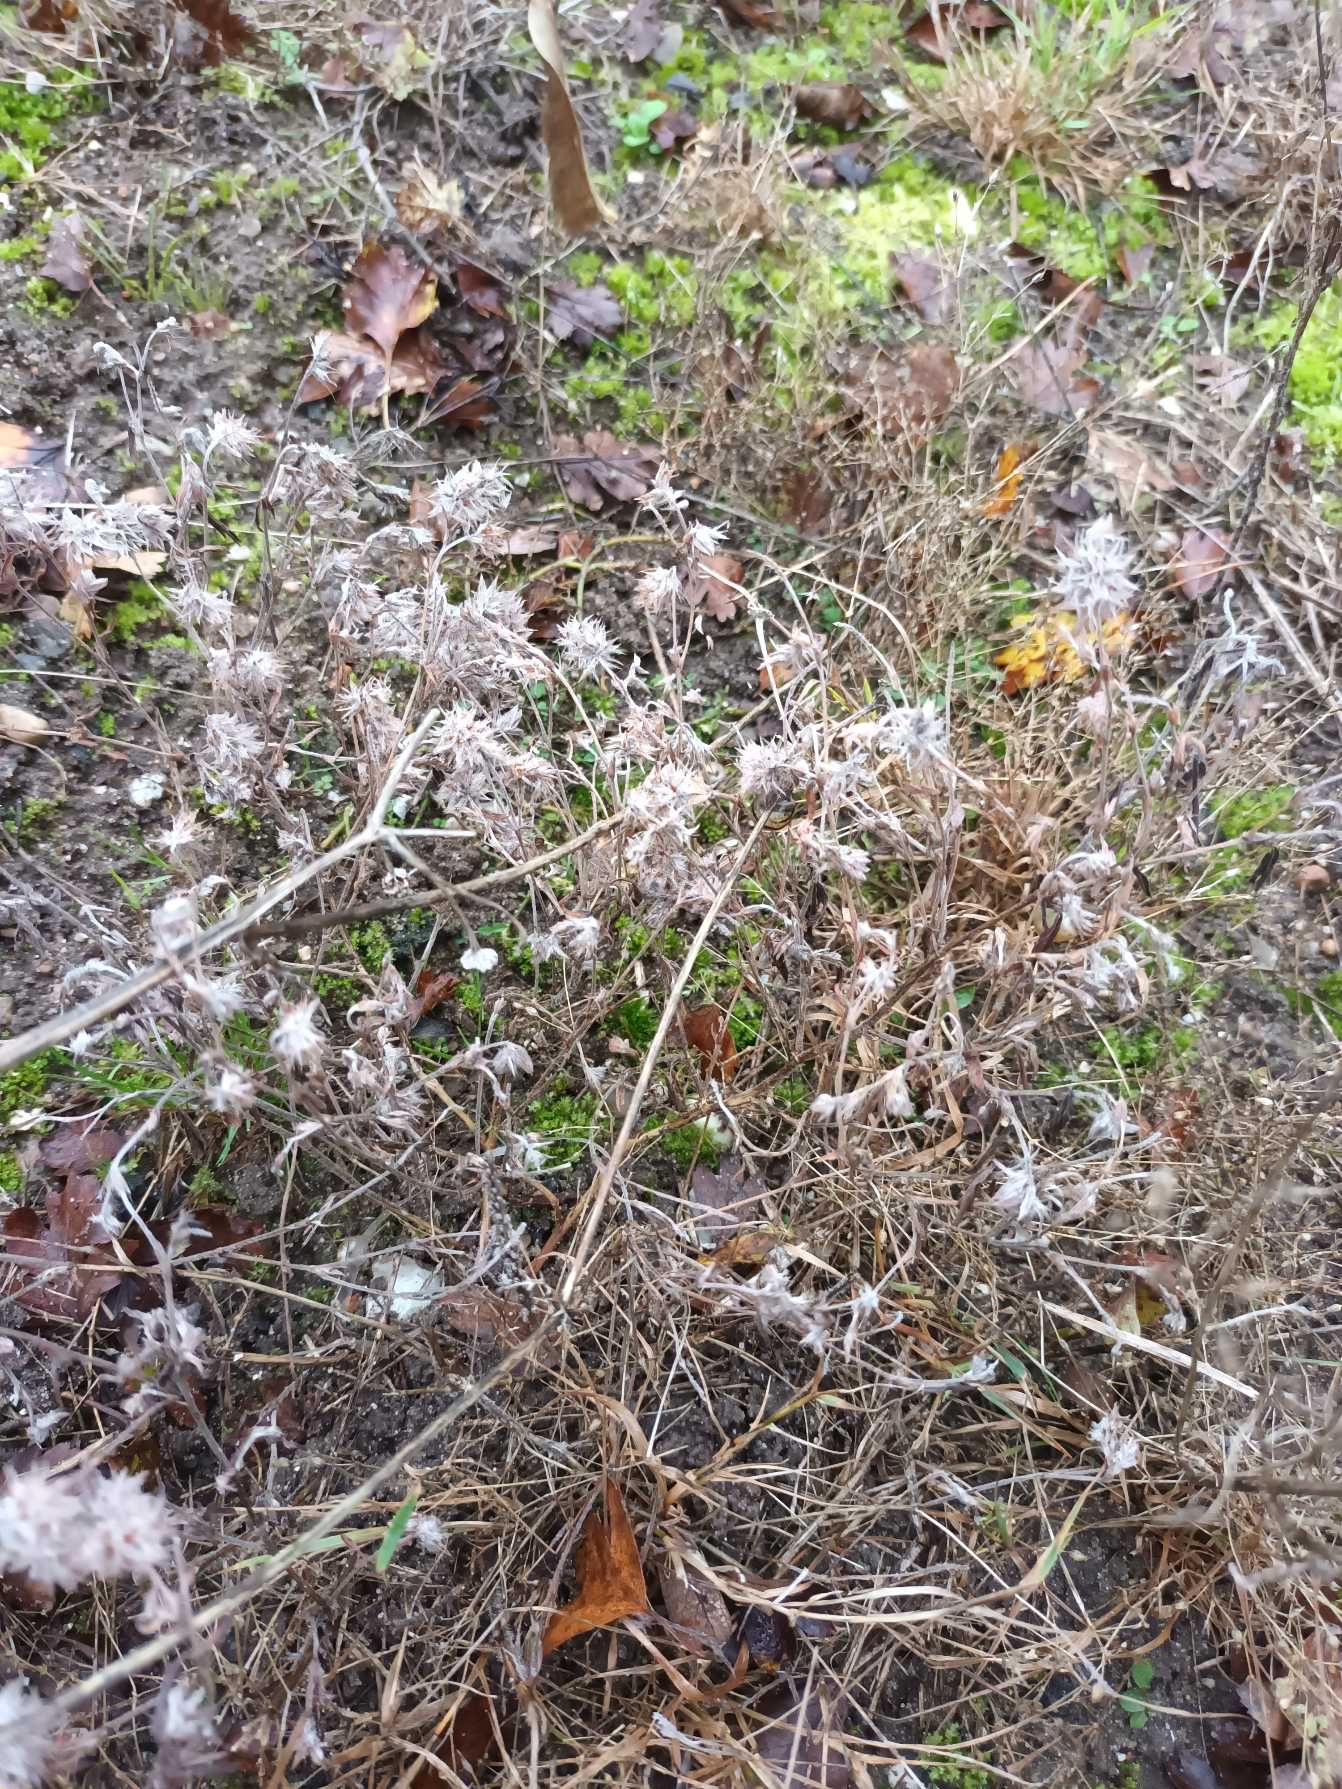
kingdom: Plantae
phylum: Tracheophyta
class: Magnoliopsida
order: Fabales
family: Fabaceae
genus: Trifolium
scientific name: Trifolium arvense
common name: Hare-kløver
